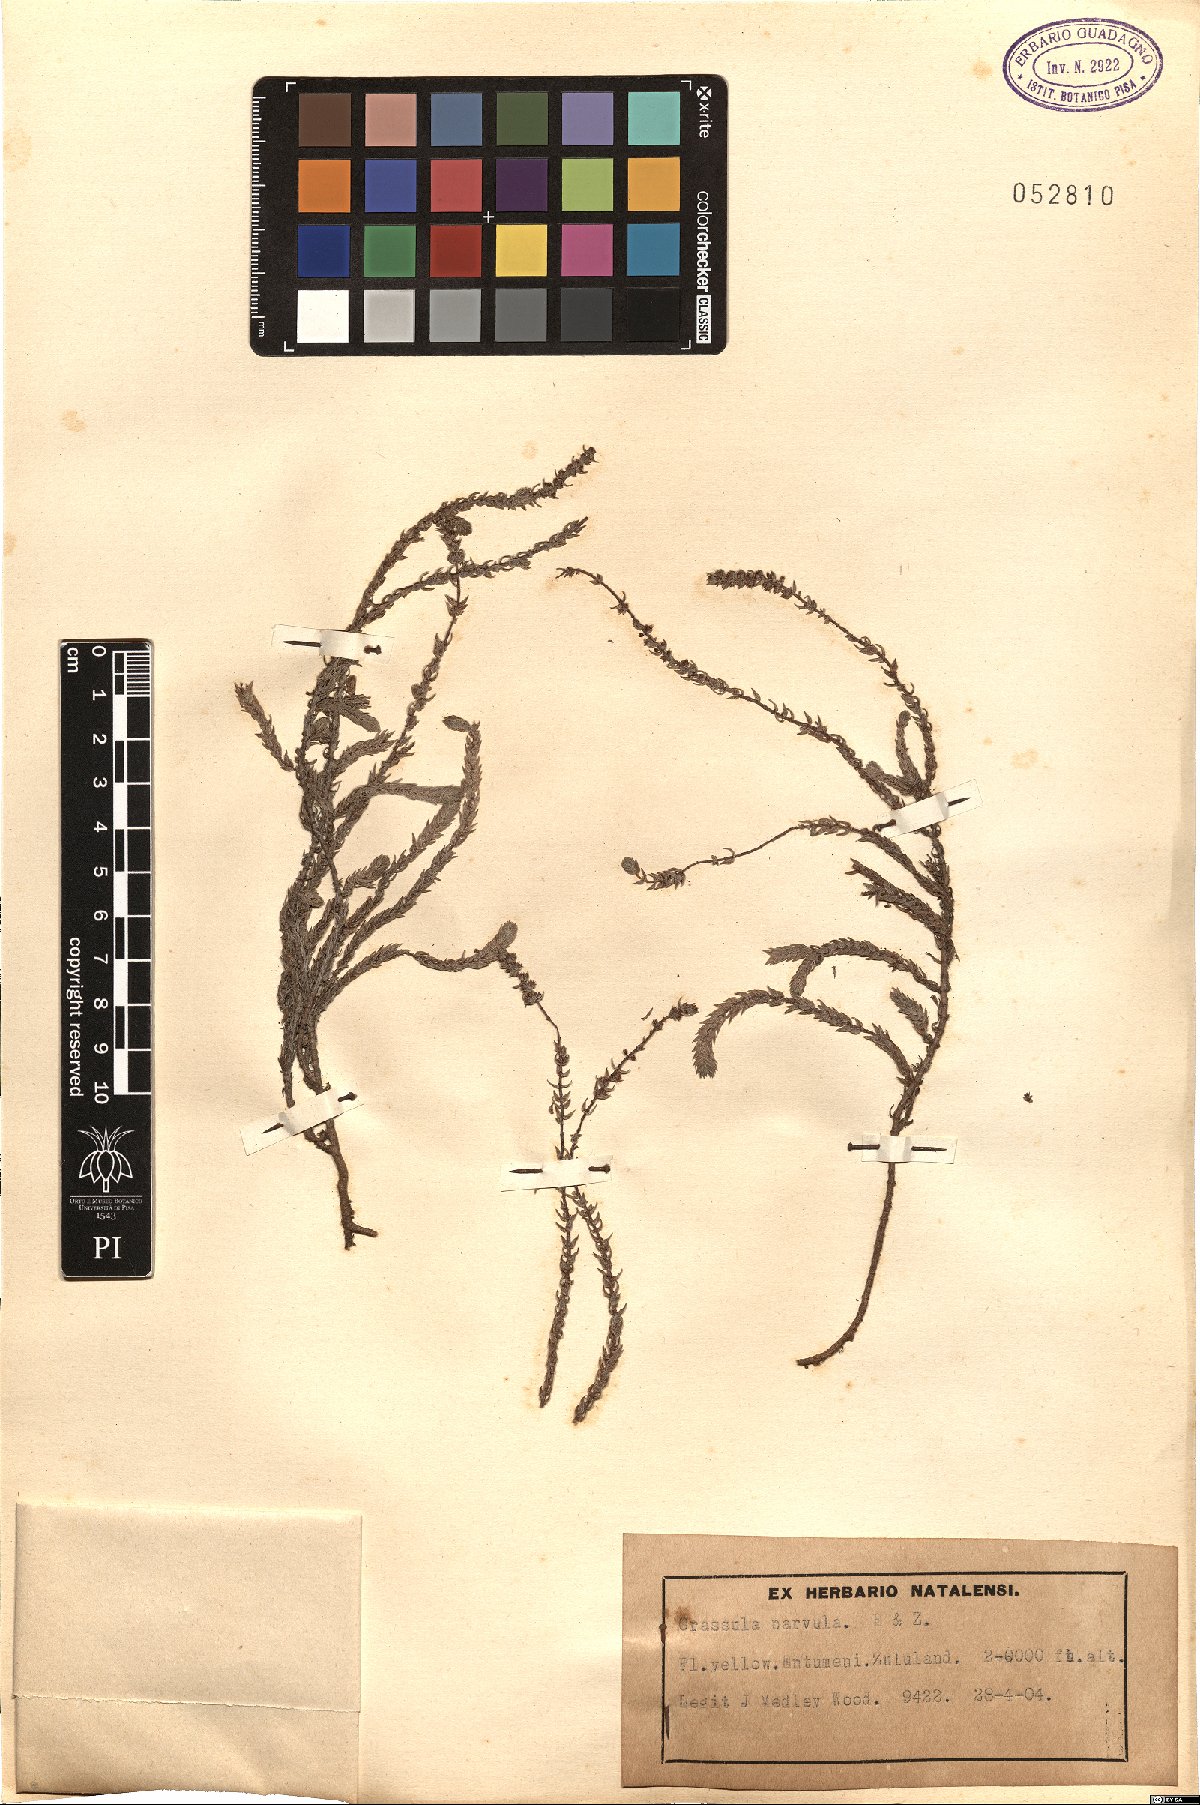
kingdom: Plantae
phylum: Tracheophyta
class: Magnoliopsida
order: Saxifragales
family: Crassulaceae
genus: Crassula
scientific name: Crassula muscosa
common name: Toy-cypress
